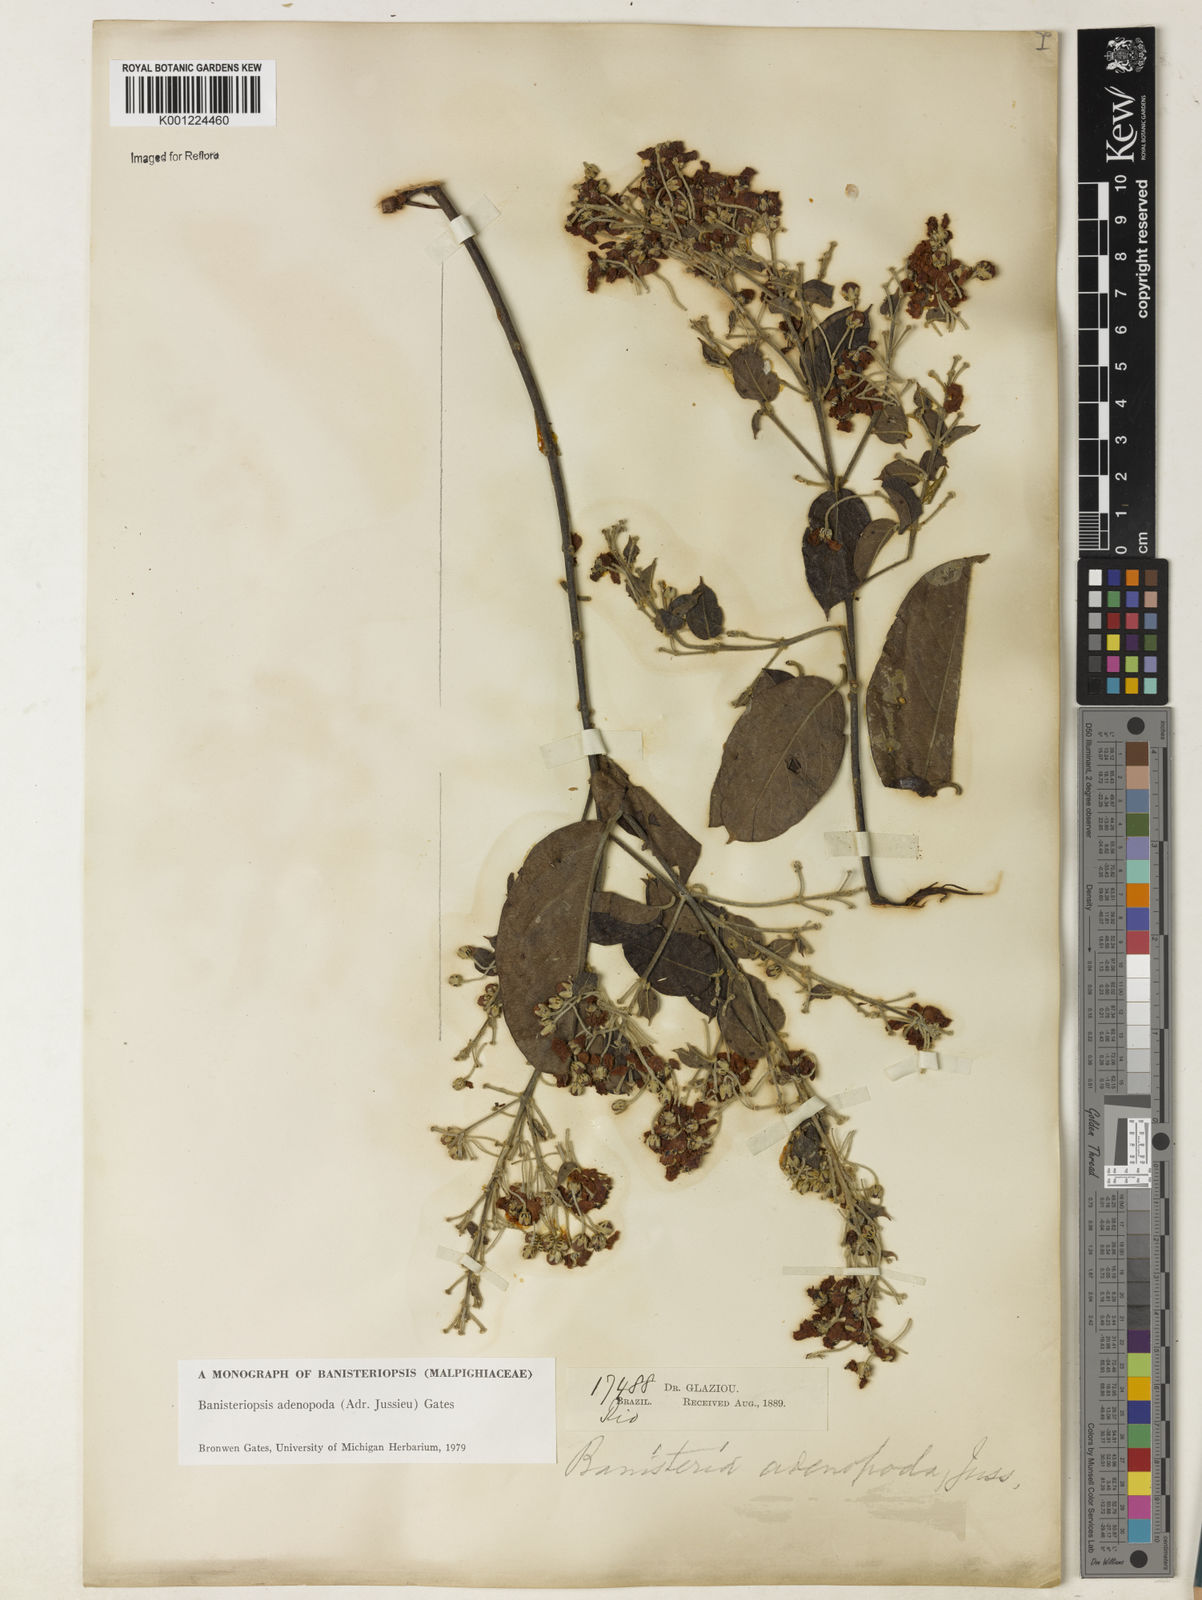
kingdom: Plantae
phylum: Tracheophyta
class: Magnoliopsida
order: Malpighiales
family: Malpighiaceae
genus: Banisteriopsis
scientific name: Banisteriopsis adenopoda
